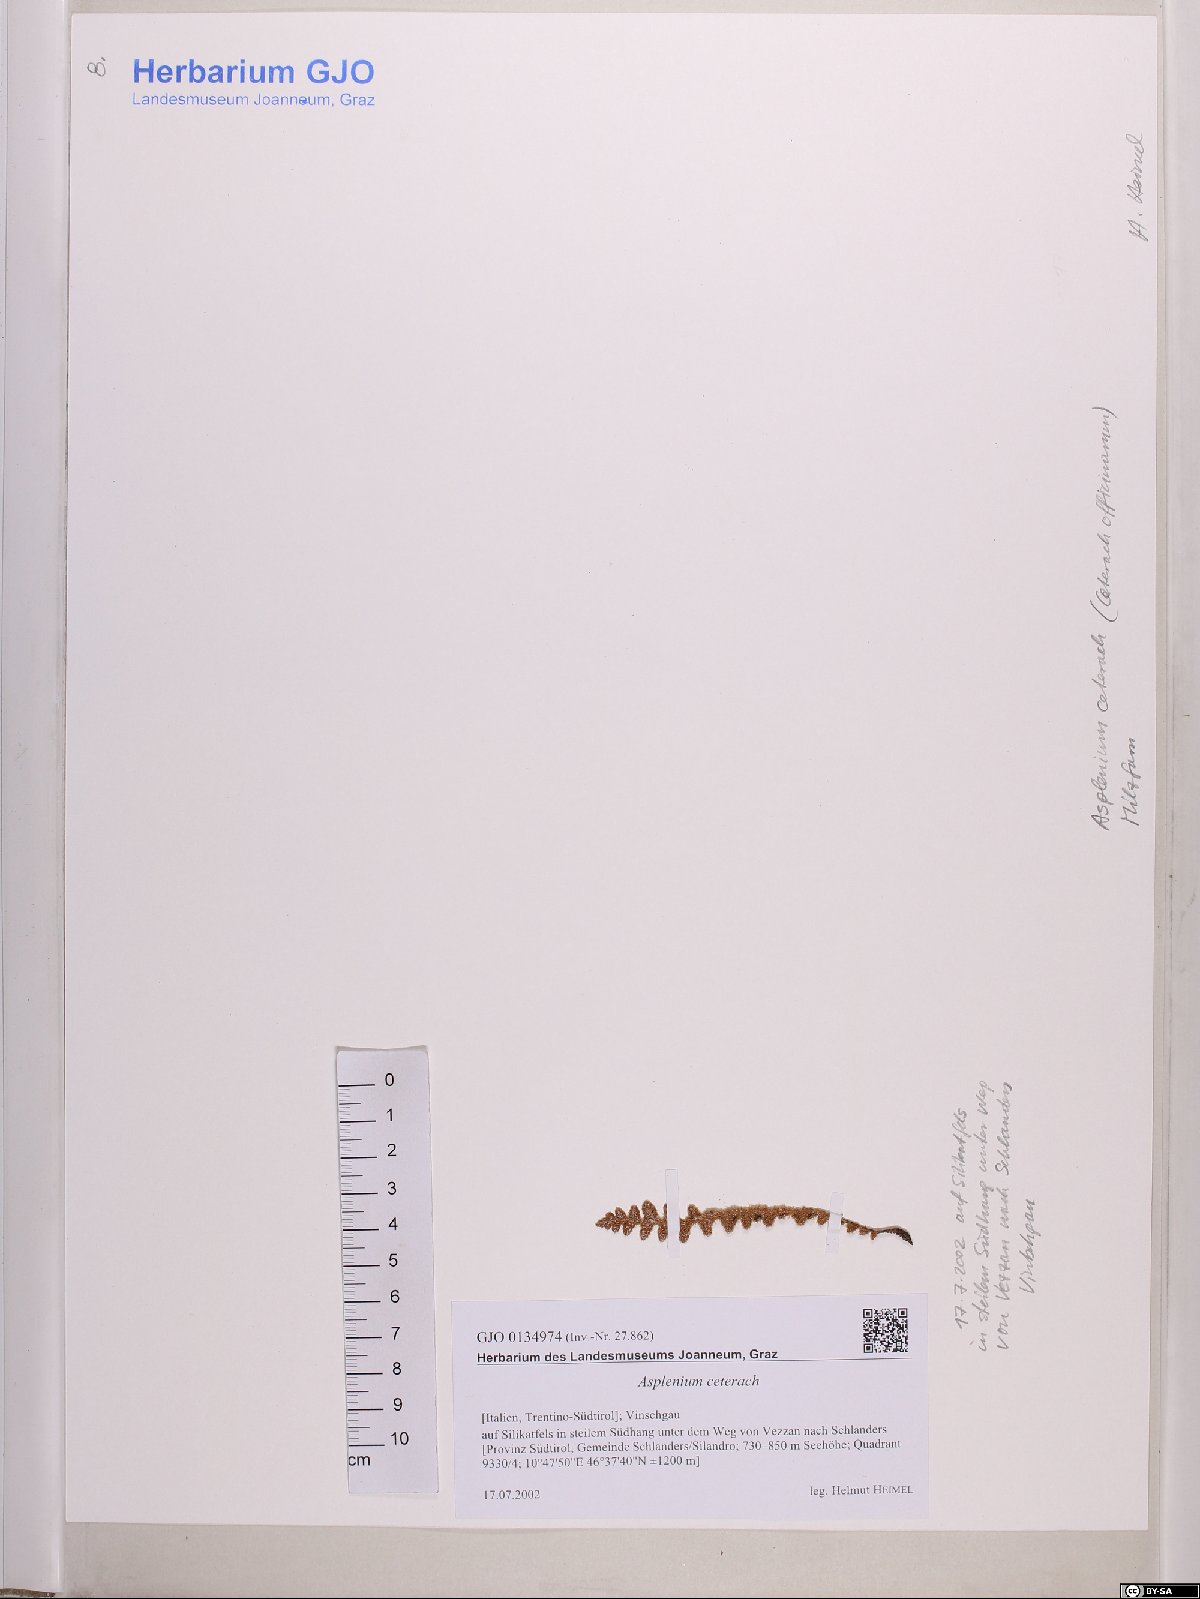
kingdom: Plantae
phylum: Tracheophyta
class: Polypodiopsida
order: Polypodiales
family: Aspleniaceae
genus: Asplenium
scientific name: Asplenium ceterach
